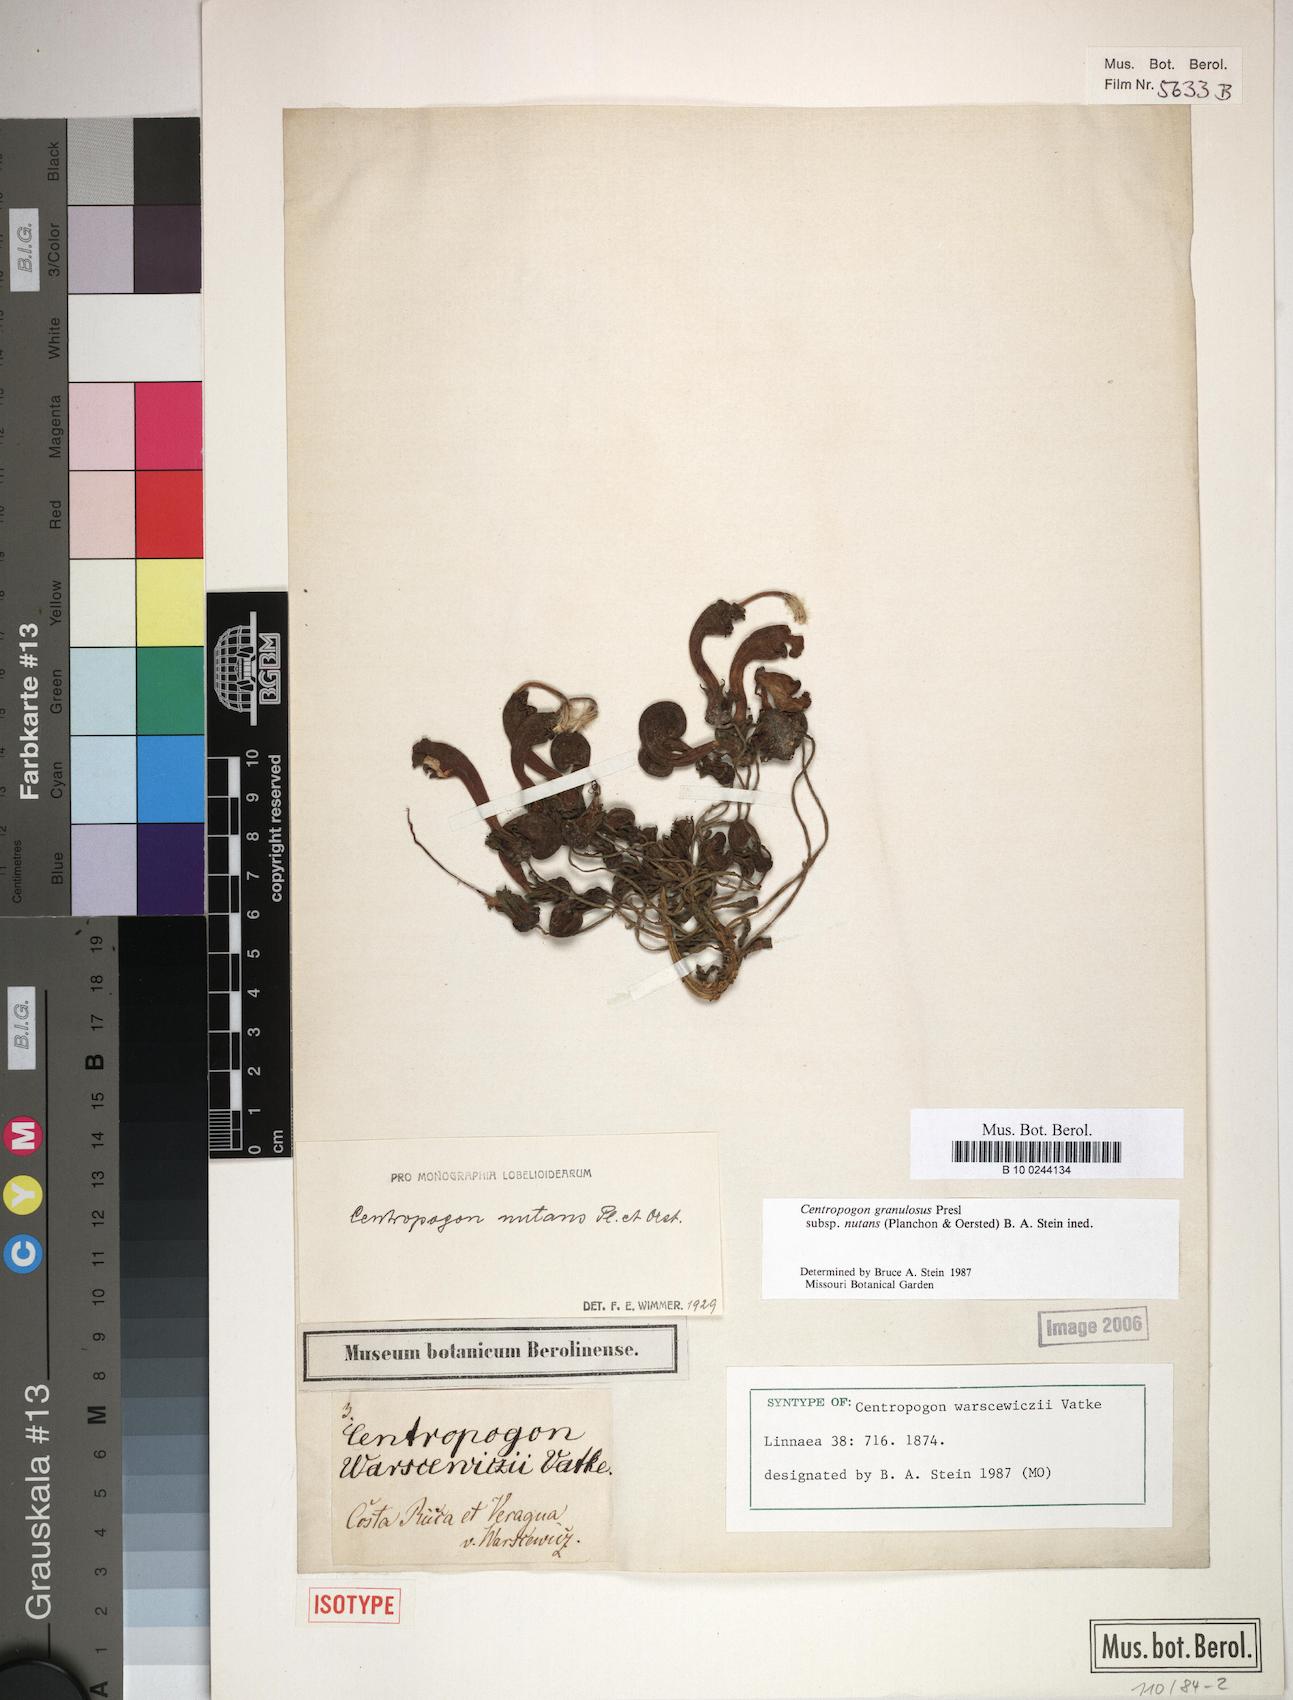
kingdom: Plantae
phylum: Tracheophyta
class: Magnoliopsida
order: Asterales
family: Campanulaceae
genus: Centropogon
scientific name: Centropogon granulosus
